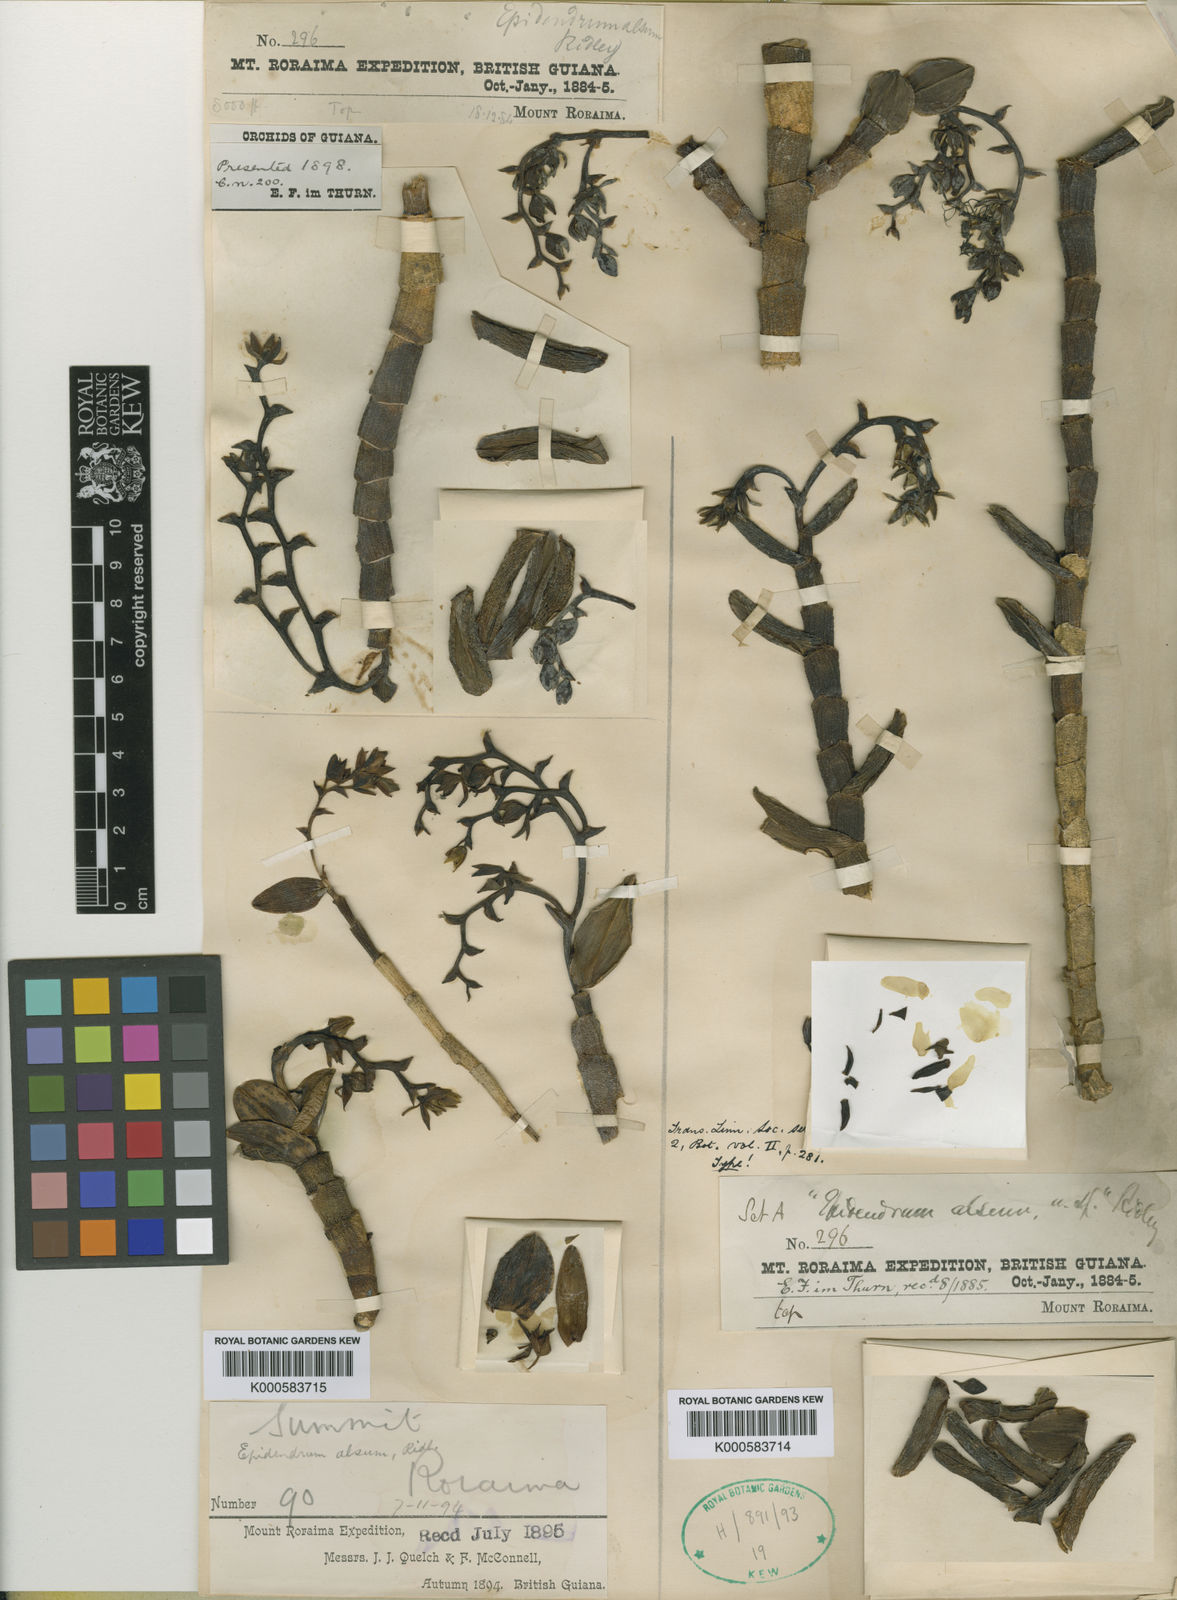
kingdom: Plantae
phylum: Tracheophyta
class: Liliopsida
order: Asparagales
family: Orchidaceae
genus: Epidendrum
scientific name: Epidendrum alsum
